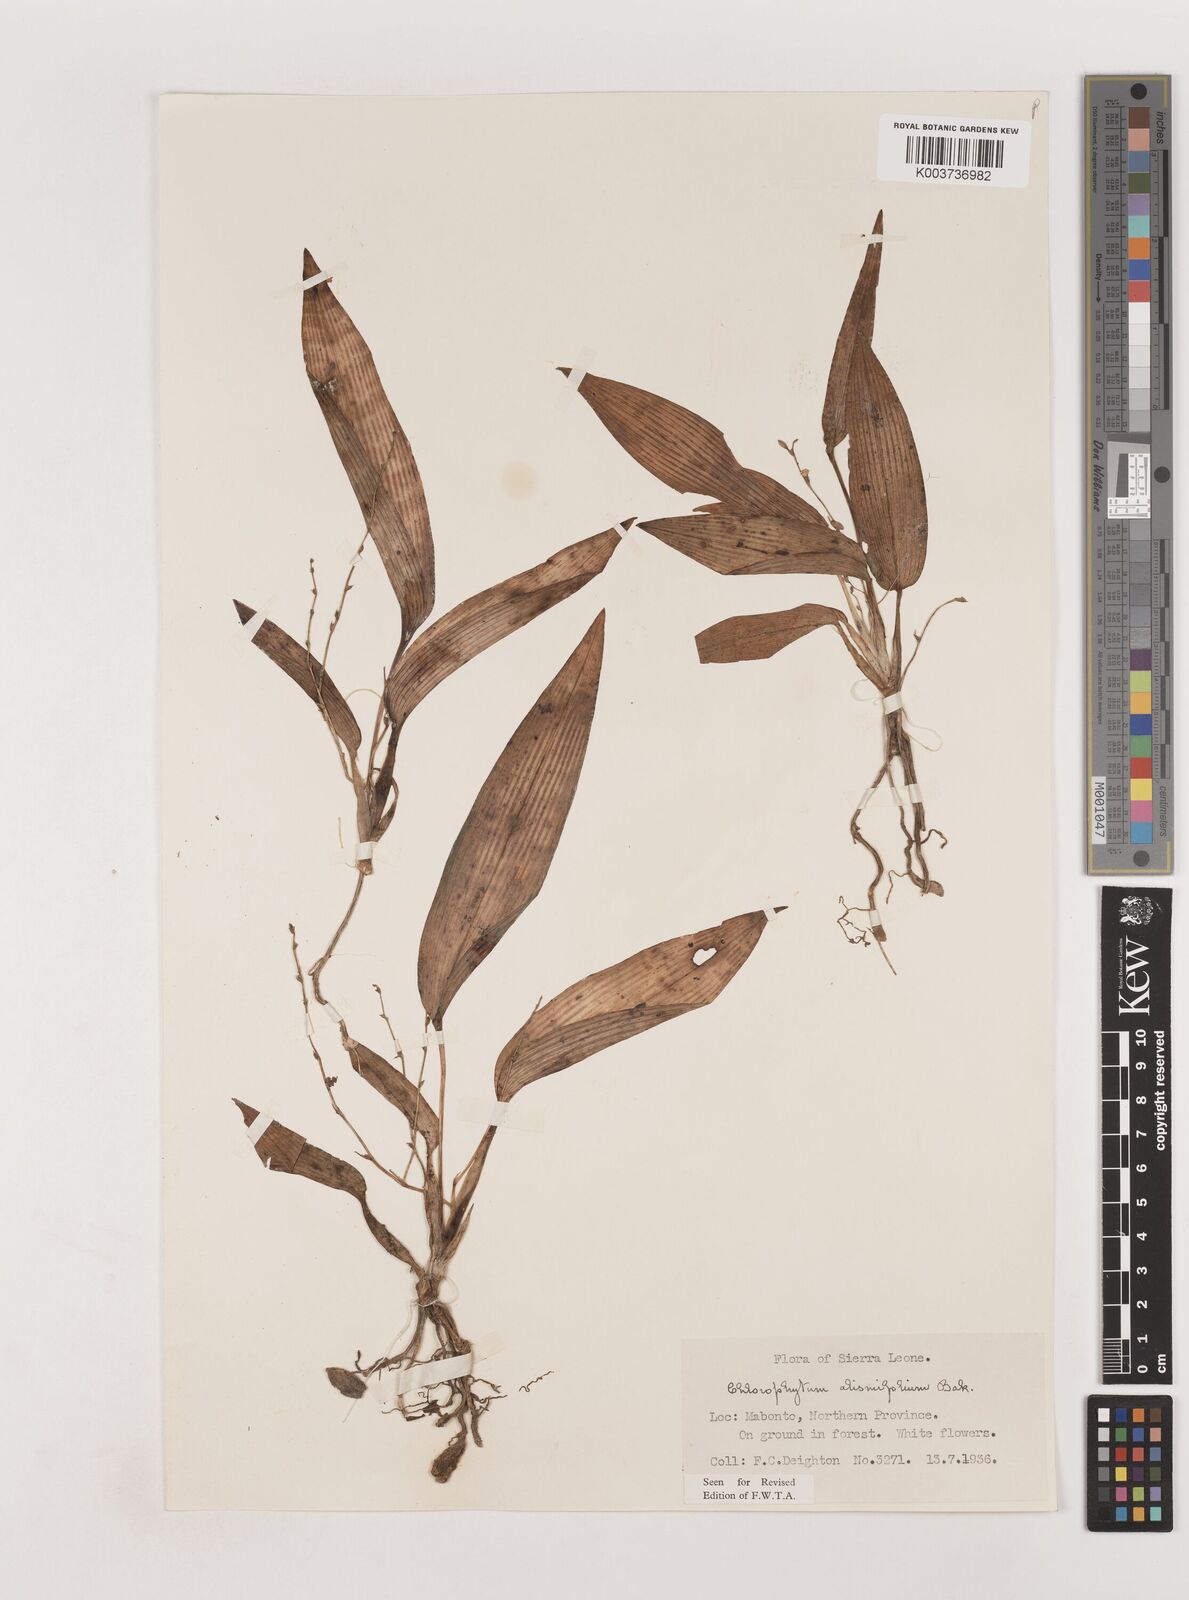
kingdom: Plantae
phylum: Tracheophyta
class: Liliopsida
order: Asparagales
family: Asparagaceae
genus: Chlorophytum
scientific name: Chlorophytum alismifolium
